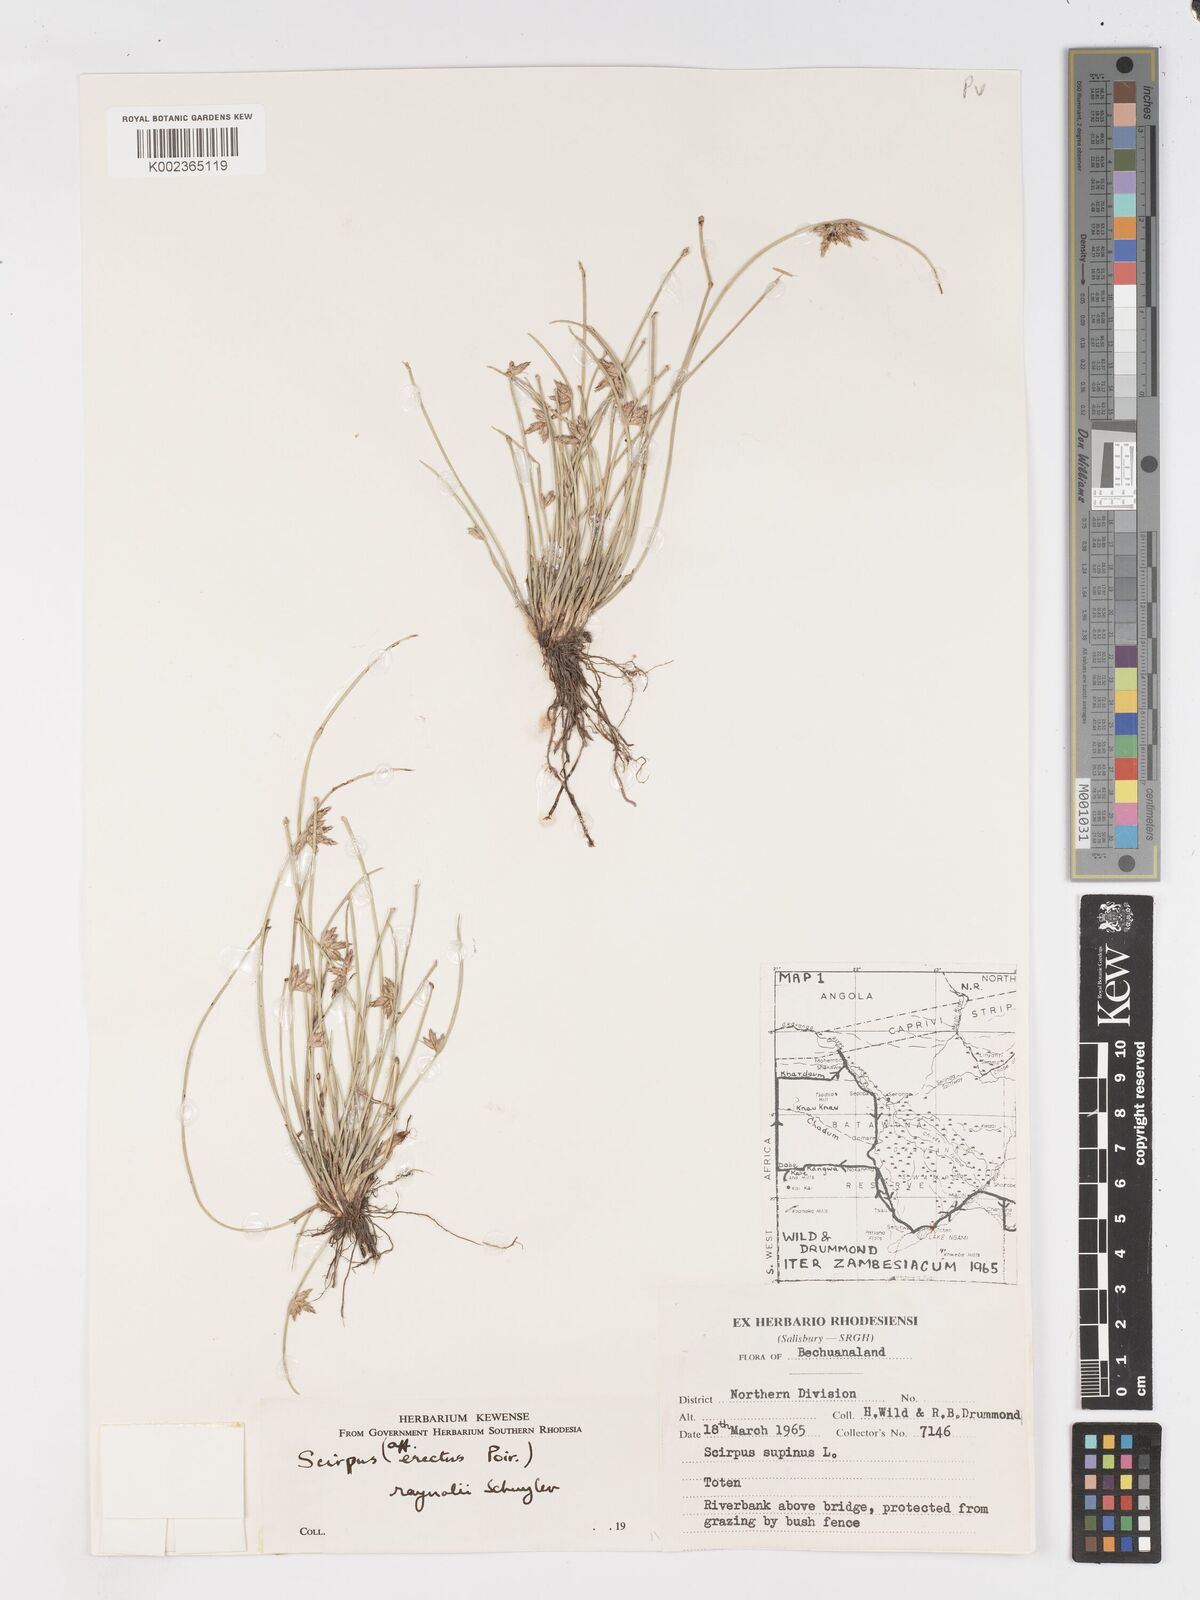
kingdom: Plantae
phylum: Tracheophyta
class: Liliopsida
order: Poales
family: Cyperaceae
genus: Schoenoplectiella
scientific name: Schoenoplectiella erecta
